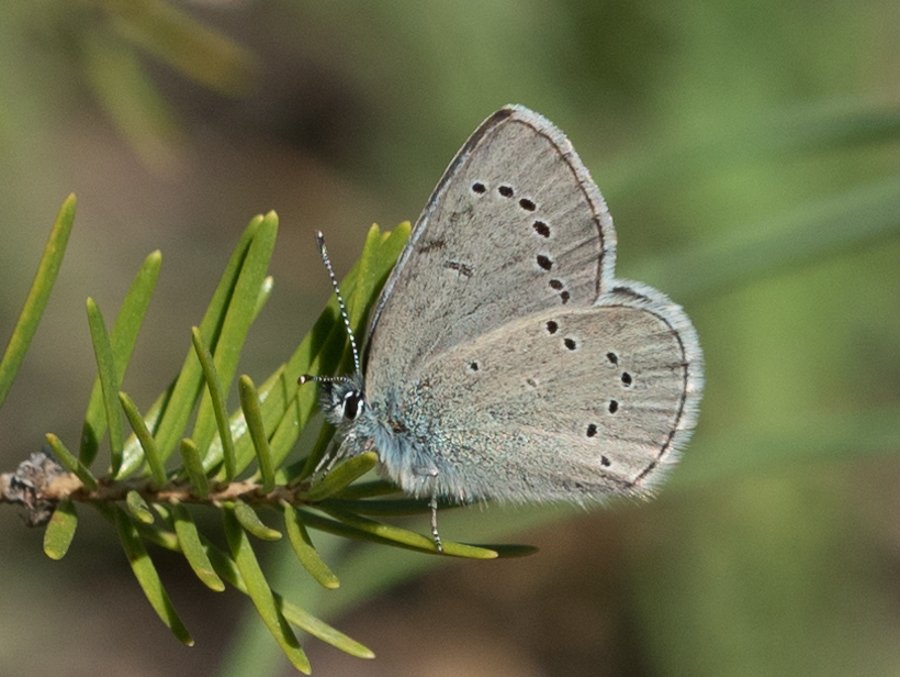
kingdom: Animalia
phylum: Arthropoda
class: Insecta
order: Lepidoptera
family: Lycaenidae
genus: Glaucopsyche
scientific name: Glaucopsyche lygdamus
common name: Silvery Blue
